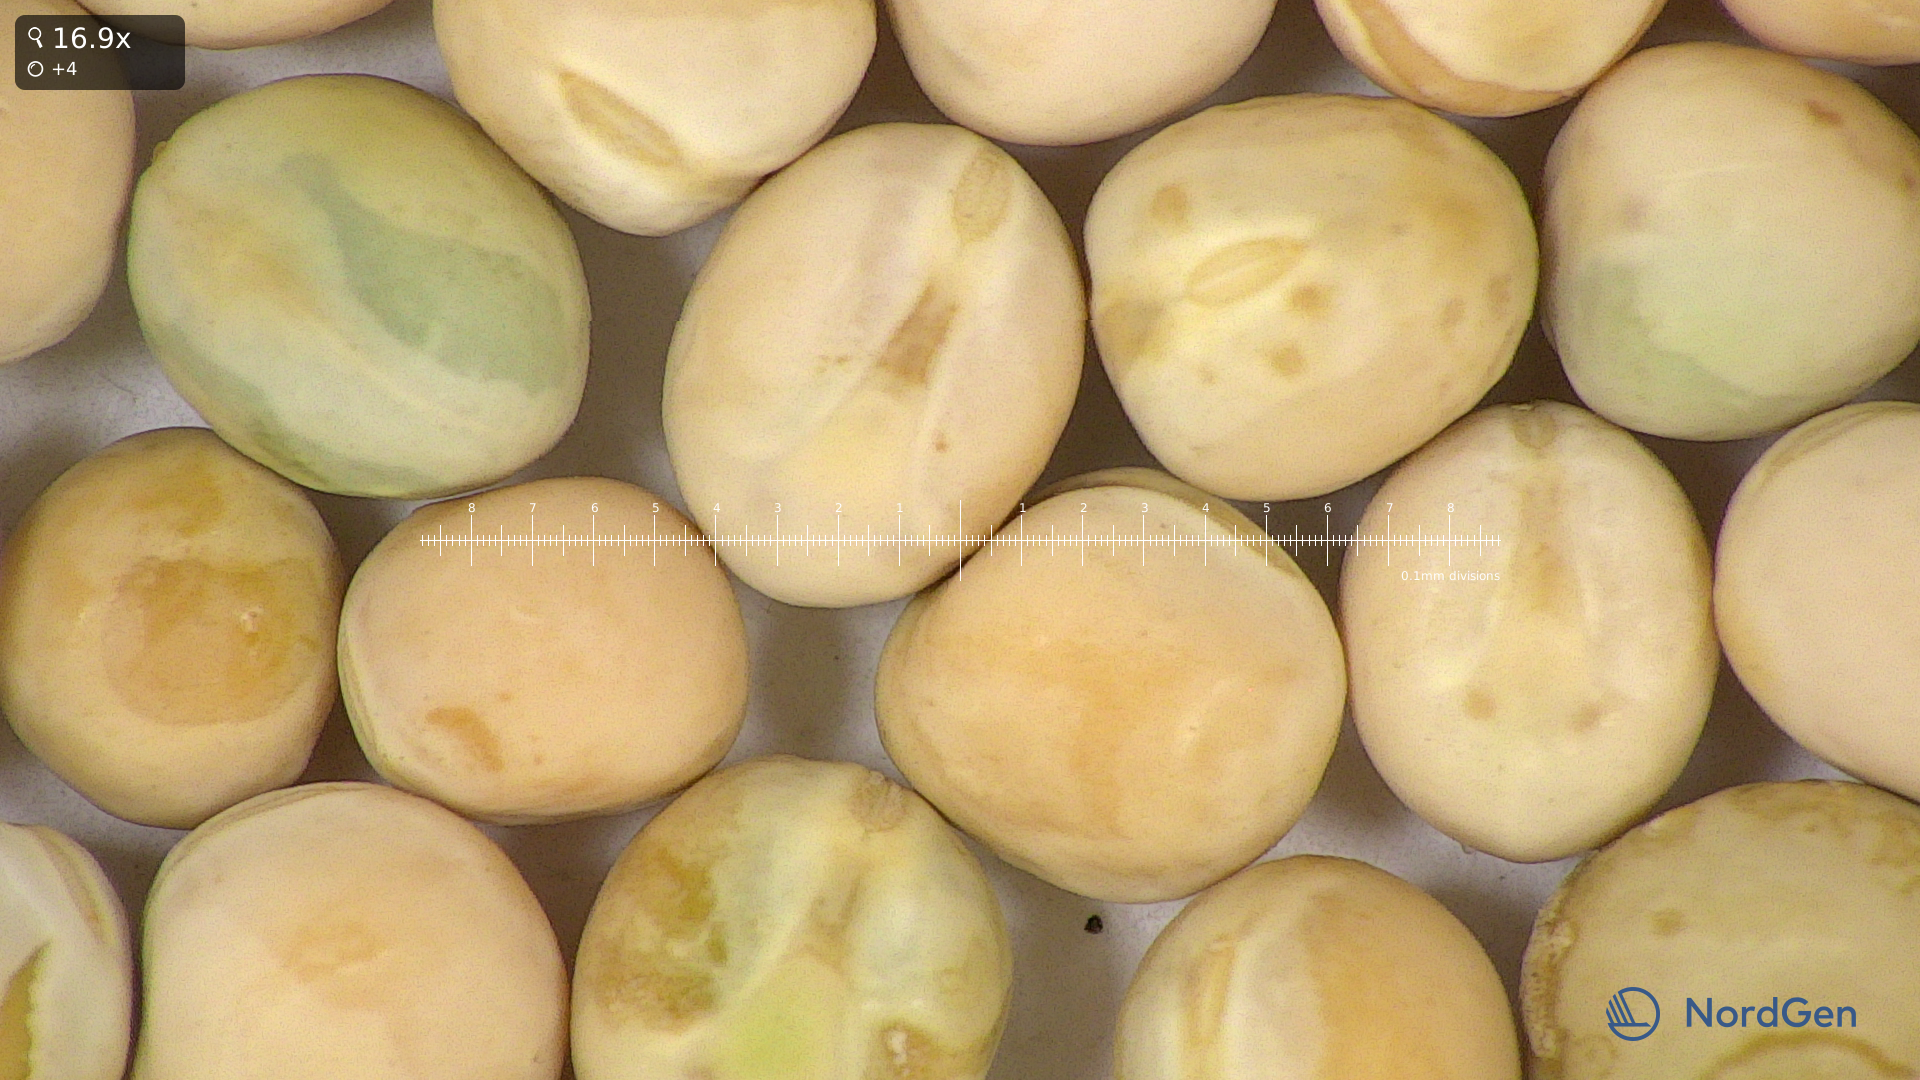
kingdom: Plantae
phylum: Tracheophyta
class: Magnoliopsida
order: Fabales
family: Fabaceae
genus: Lathyrus
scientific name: Lathyrus oleraceus
